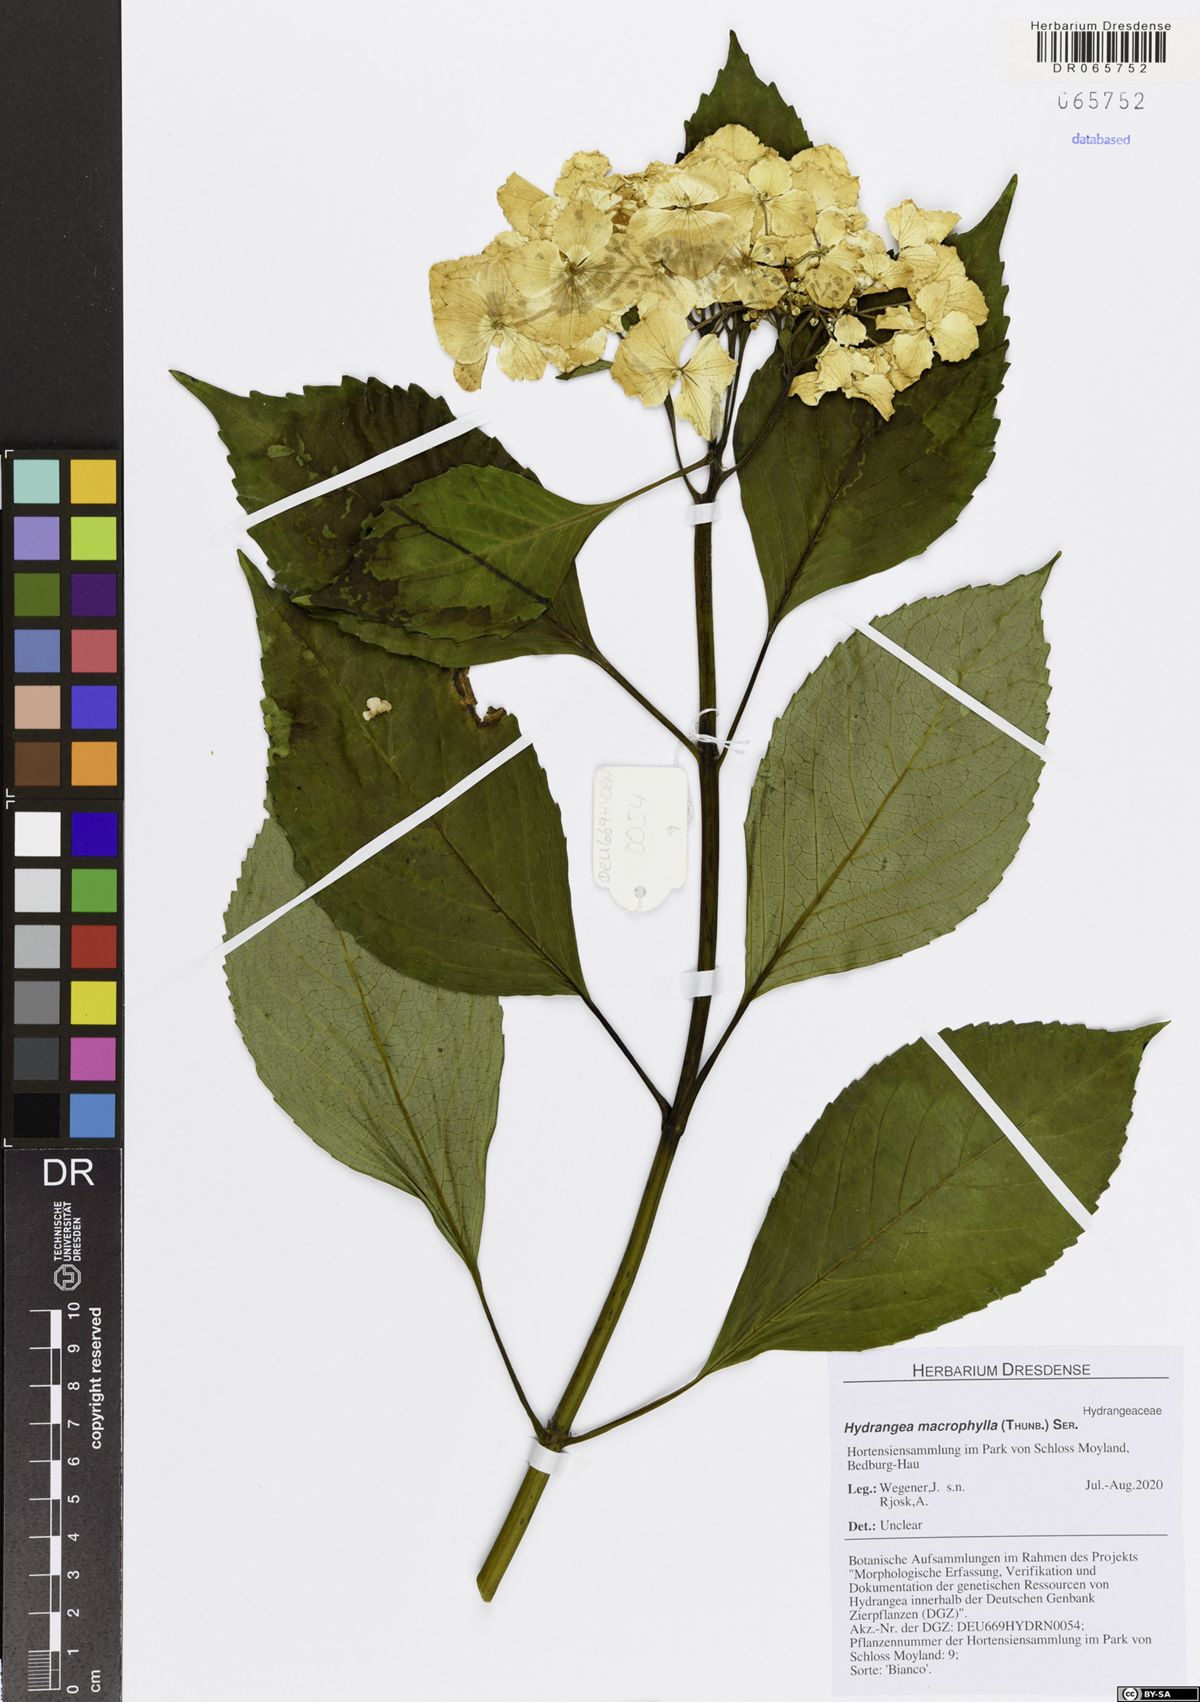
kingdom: Plantae
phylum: Tracheophyta
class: Magnoliopsida
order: Cornales
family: Hydrangeaceae
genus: Hydrangea
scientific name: Hydrangea macrophylla
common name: Hydrangea
